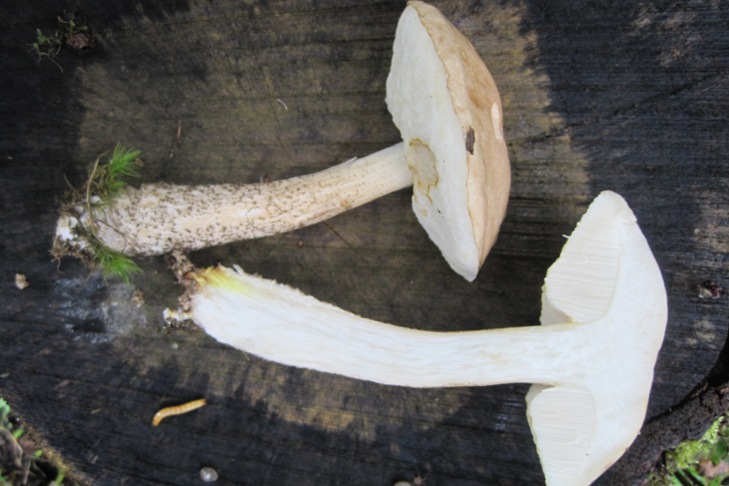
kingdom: Fungi
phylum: Basidiomycota
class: Agaricomycetes
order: Boletales
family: Boletaceae
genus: Leccinum
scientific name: Leccinum scabrum
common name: hvid skælrørhat
